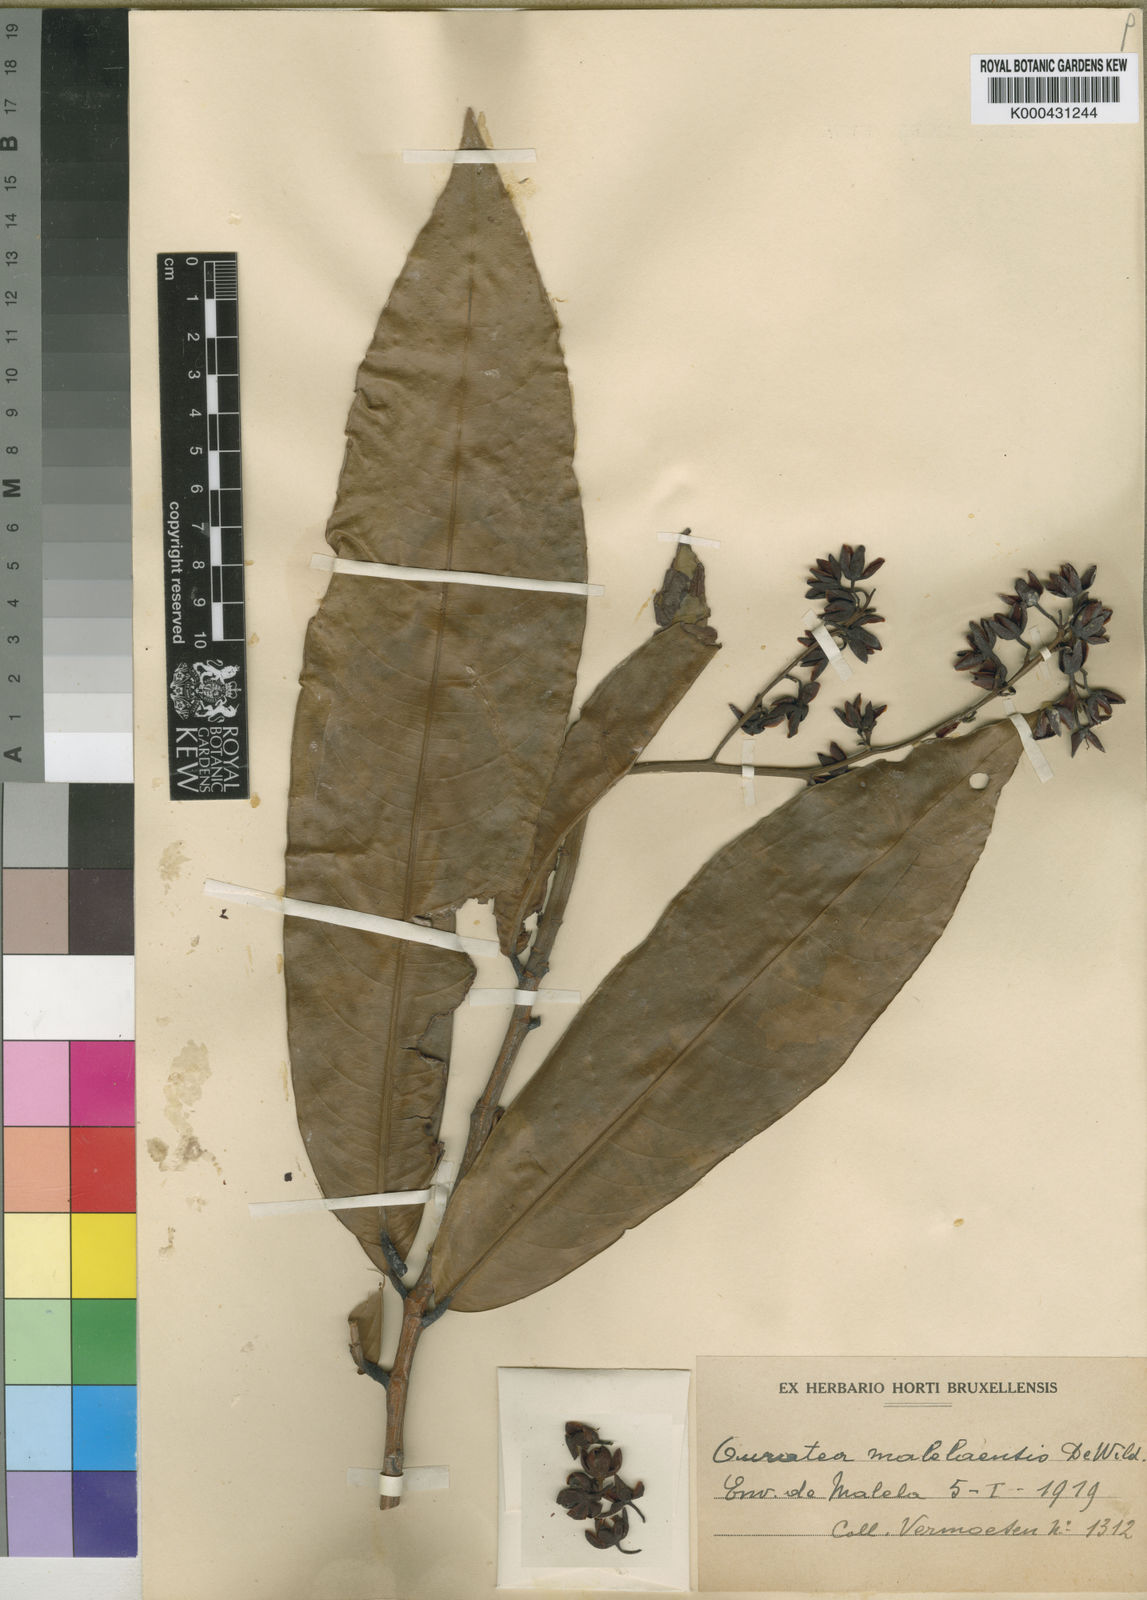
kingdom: Plantae
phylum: Tracheophyta
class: Magnoliopsida
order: Malpighiales
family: Ochnaceae
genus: Campylospermum
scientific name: Campylospermum
